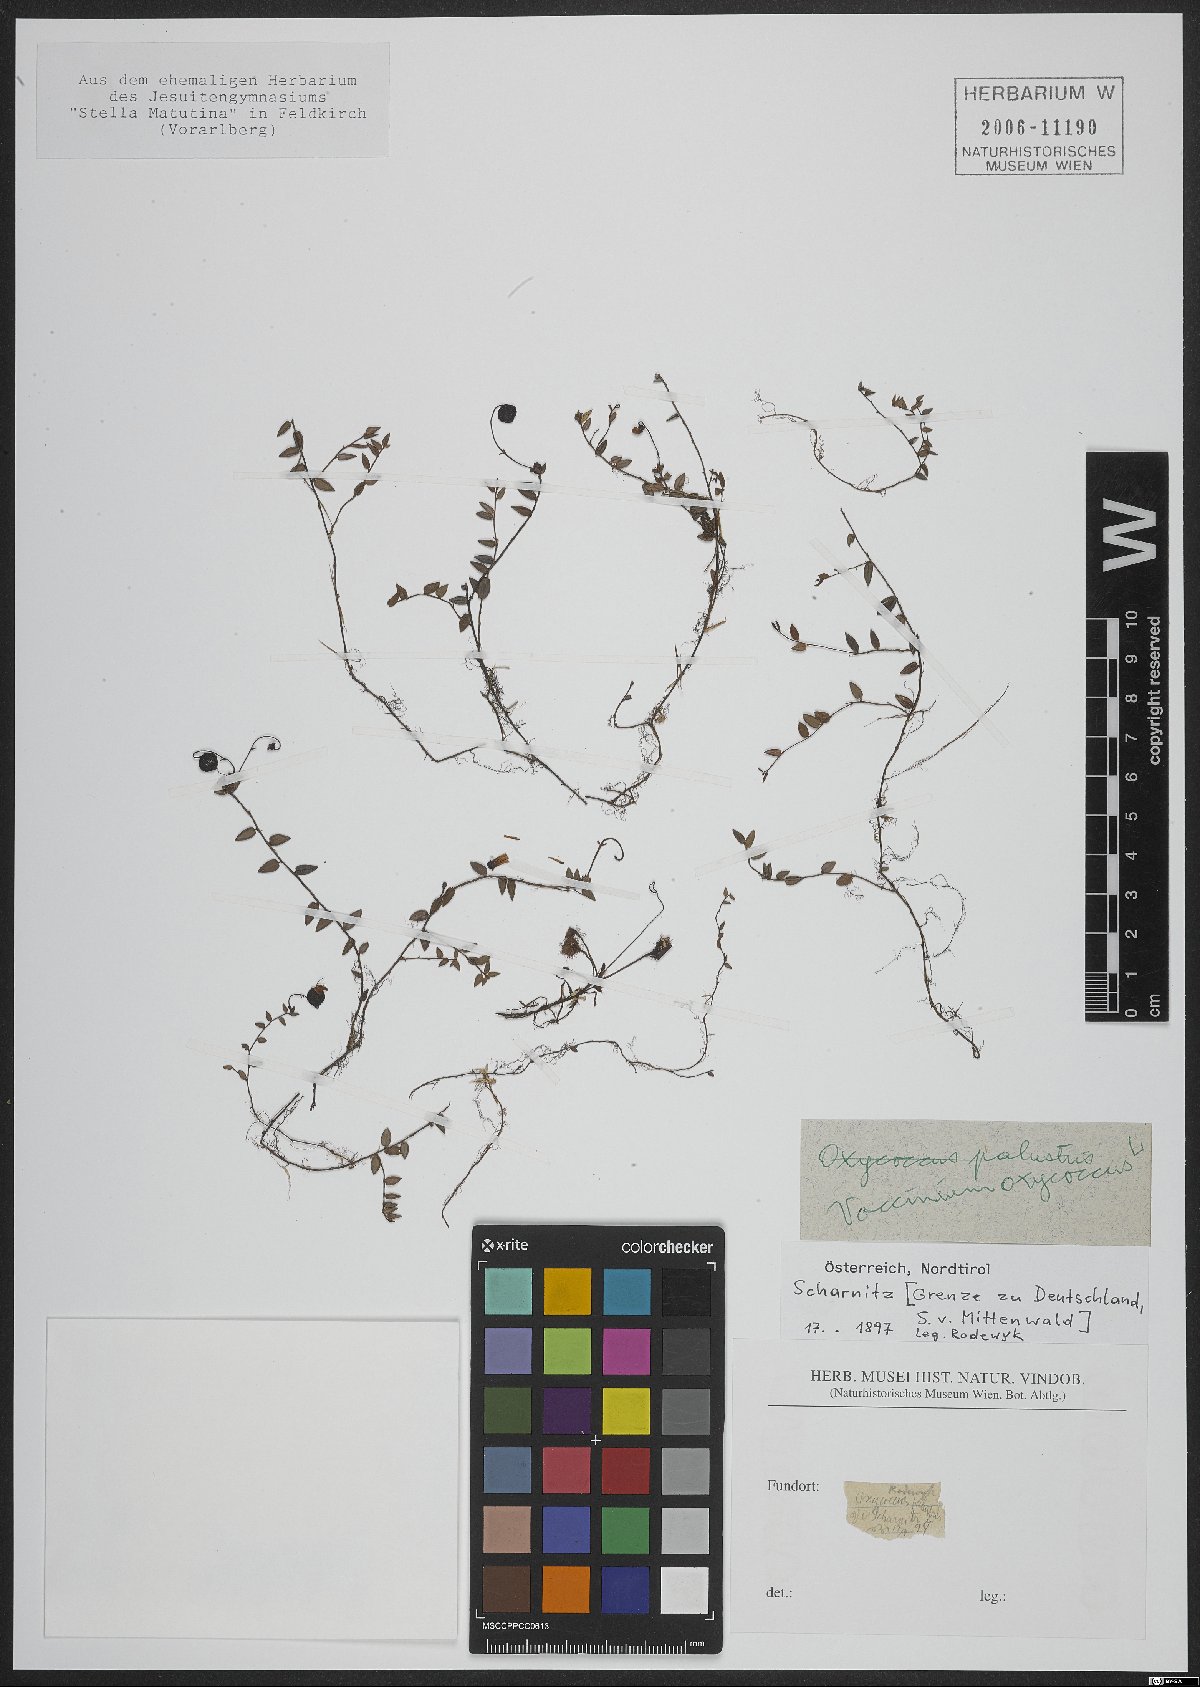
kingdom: Plantae
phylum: Tracheophyta
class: Magnoliopsida
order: Ericales
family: Ericaceae
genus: Vaccinium
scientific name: Vaccinium oxycoccos
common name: Cranberry
